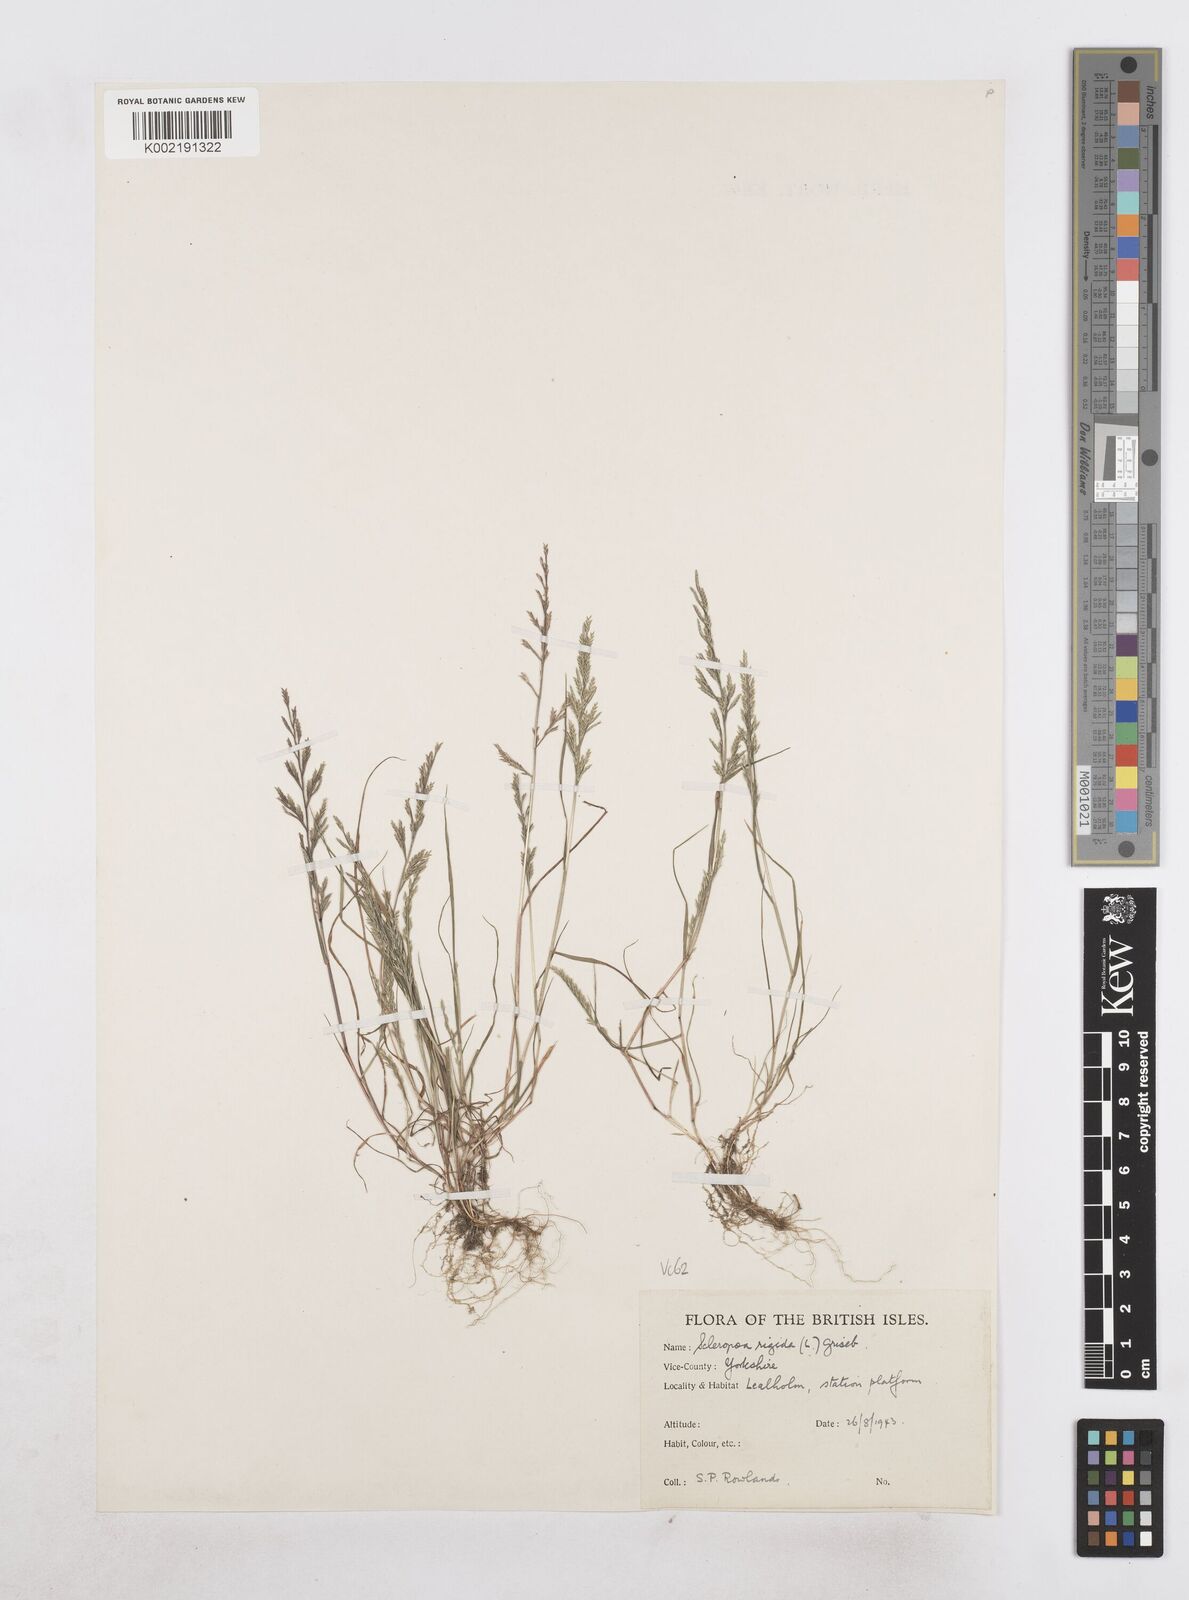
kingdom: Plantae
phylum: Tracheophyta
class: Liliopsida
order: Poales
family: Poaceae
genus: Catapodium
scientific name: Catapodium rigidum
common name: Fern-grass
